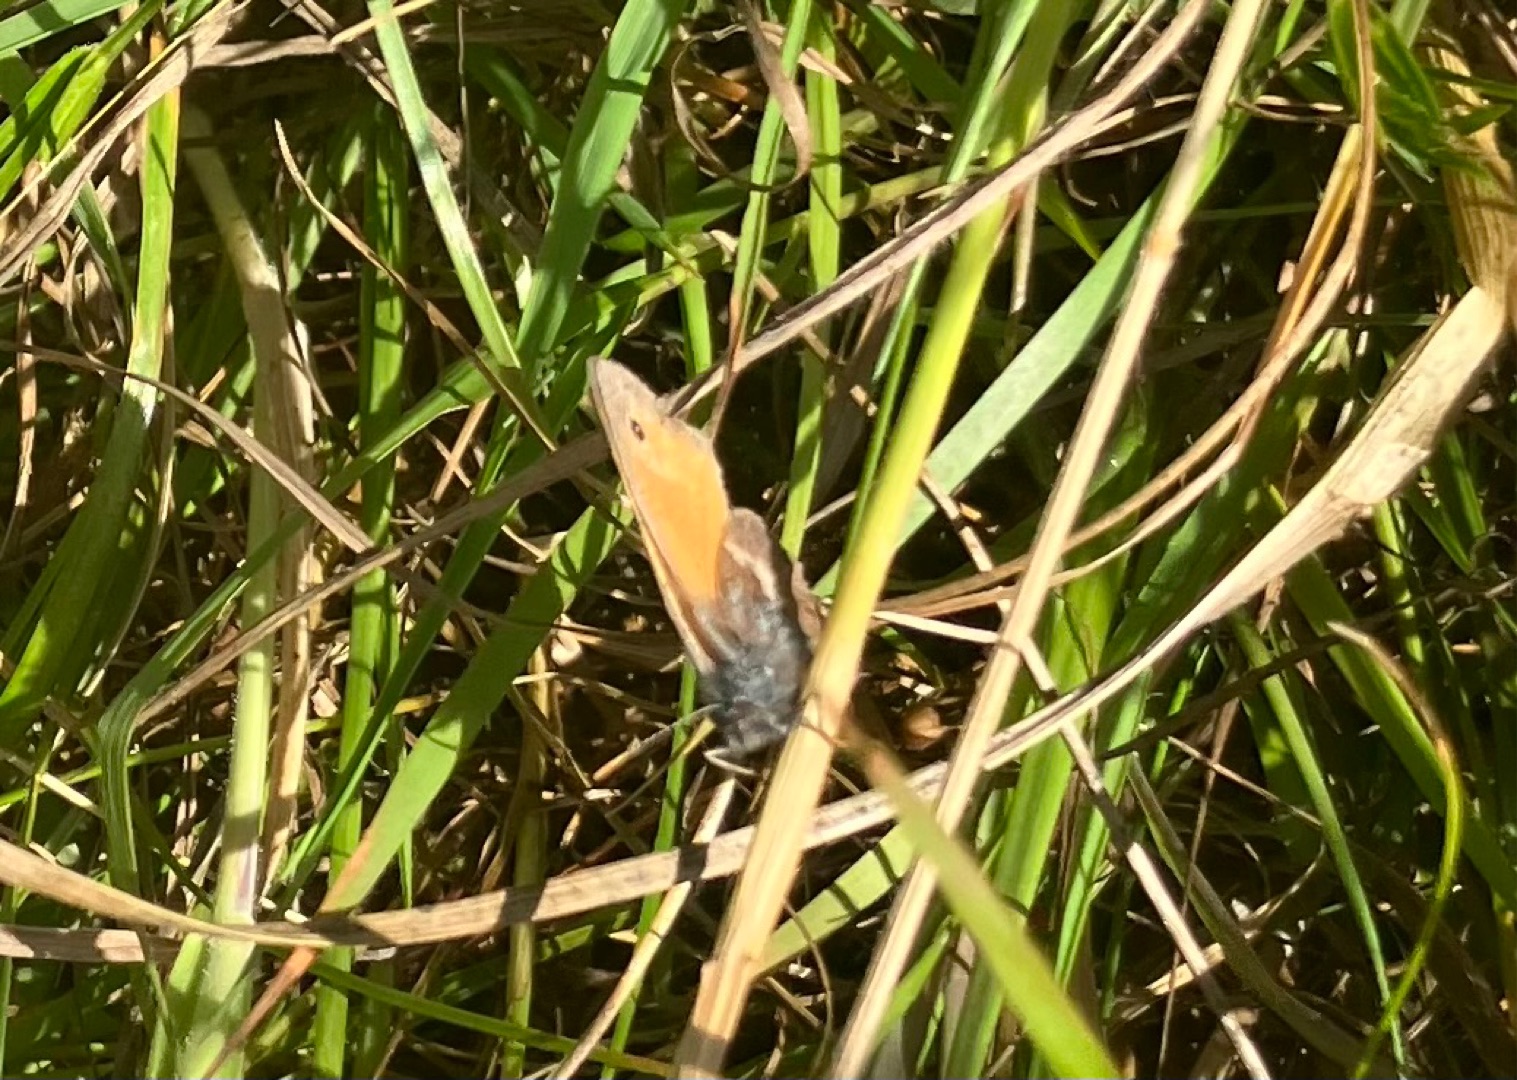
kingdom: Animalia
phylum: Arthropoda
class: Insecta
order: Lepidoptera
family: Nymphalidae
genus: Coenonympha
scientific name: Coenonympha pamphilus
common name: Okkergul randøje
